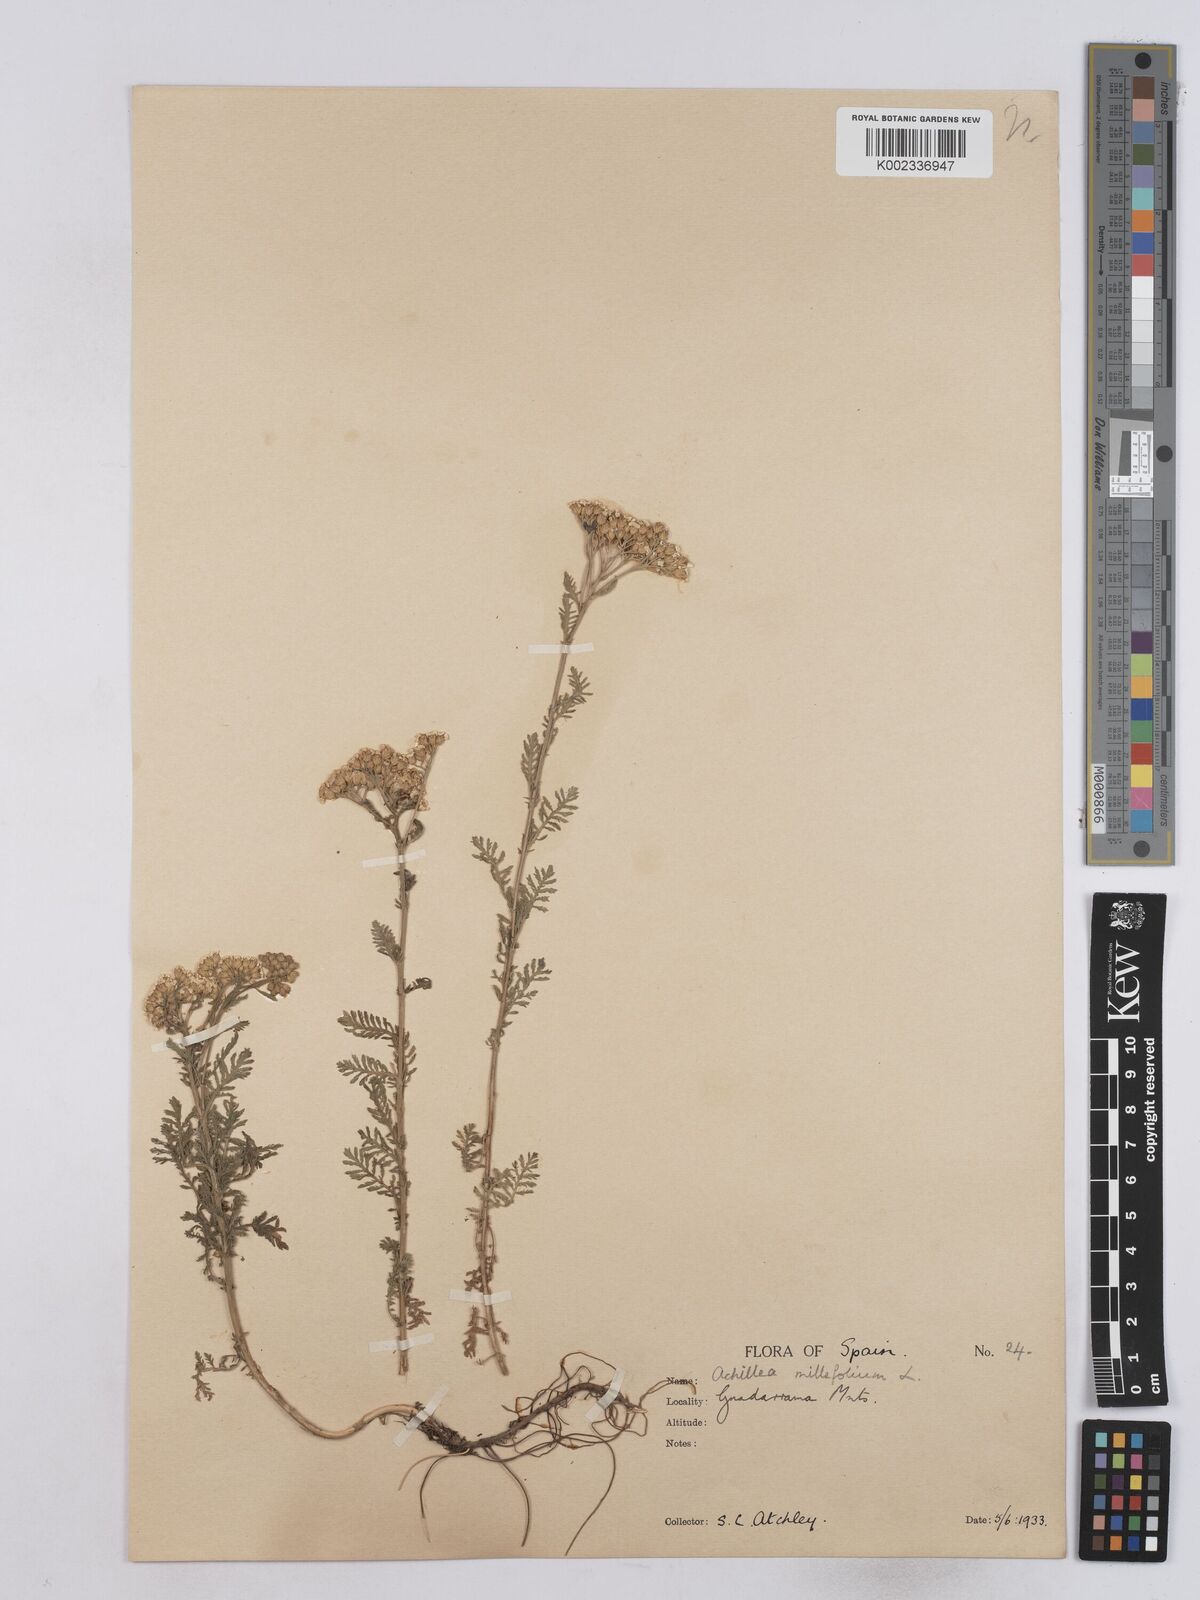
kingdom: Plantae
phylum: Tracheophyta
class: Magnoliopsida
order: Asterales
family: Asteraceae
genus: Achillea
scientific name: Achillea odorata
